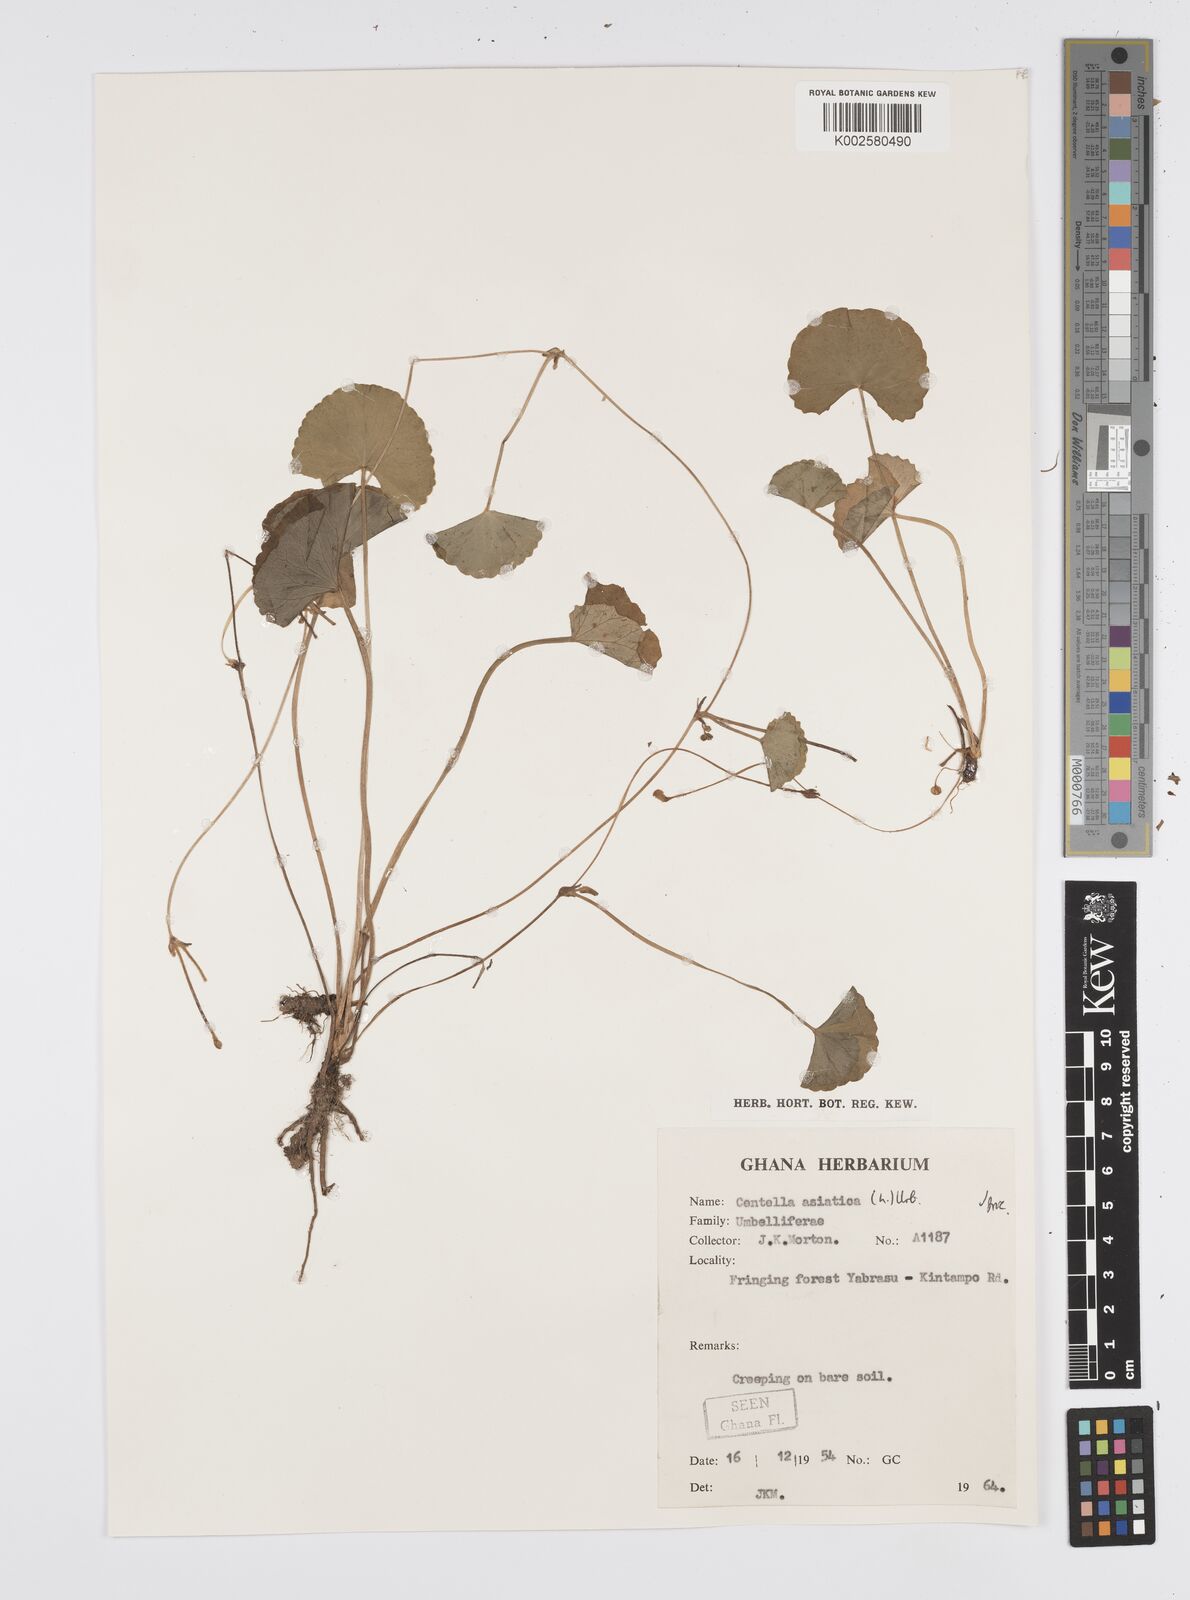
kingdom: Plantae
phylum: Tracheophyta
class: Magnoliopsida
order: Apiales
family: Apiaceae
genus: Centella
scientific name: Centella asiatica
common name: Spadeleaf
